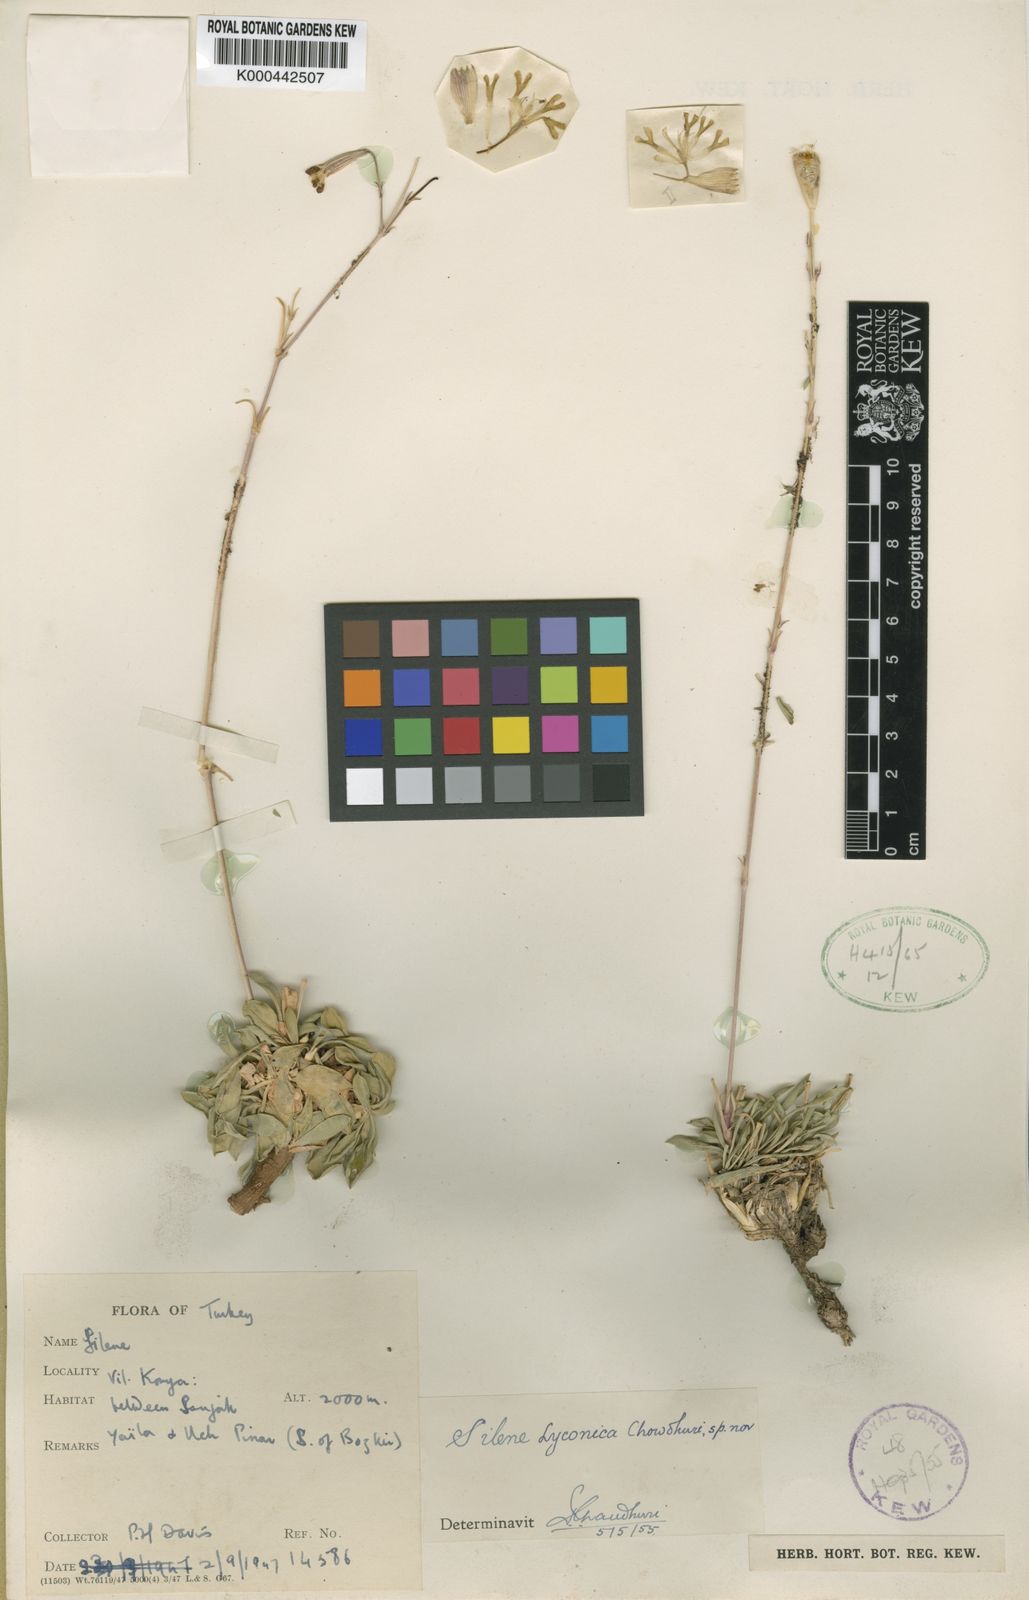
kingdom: Plantae
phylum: Tracheophyta
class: Magnoliopsida
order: Caryophyllales
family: Caryophyllaceae
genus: Silene
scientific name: Silene lycaonica
